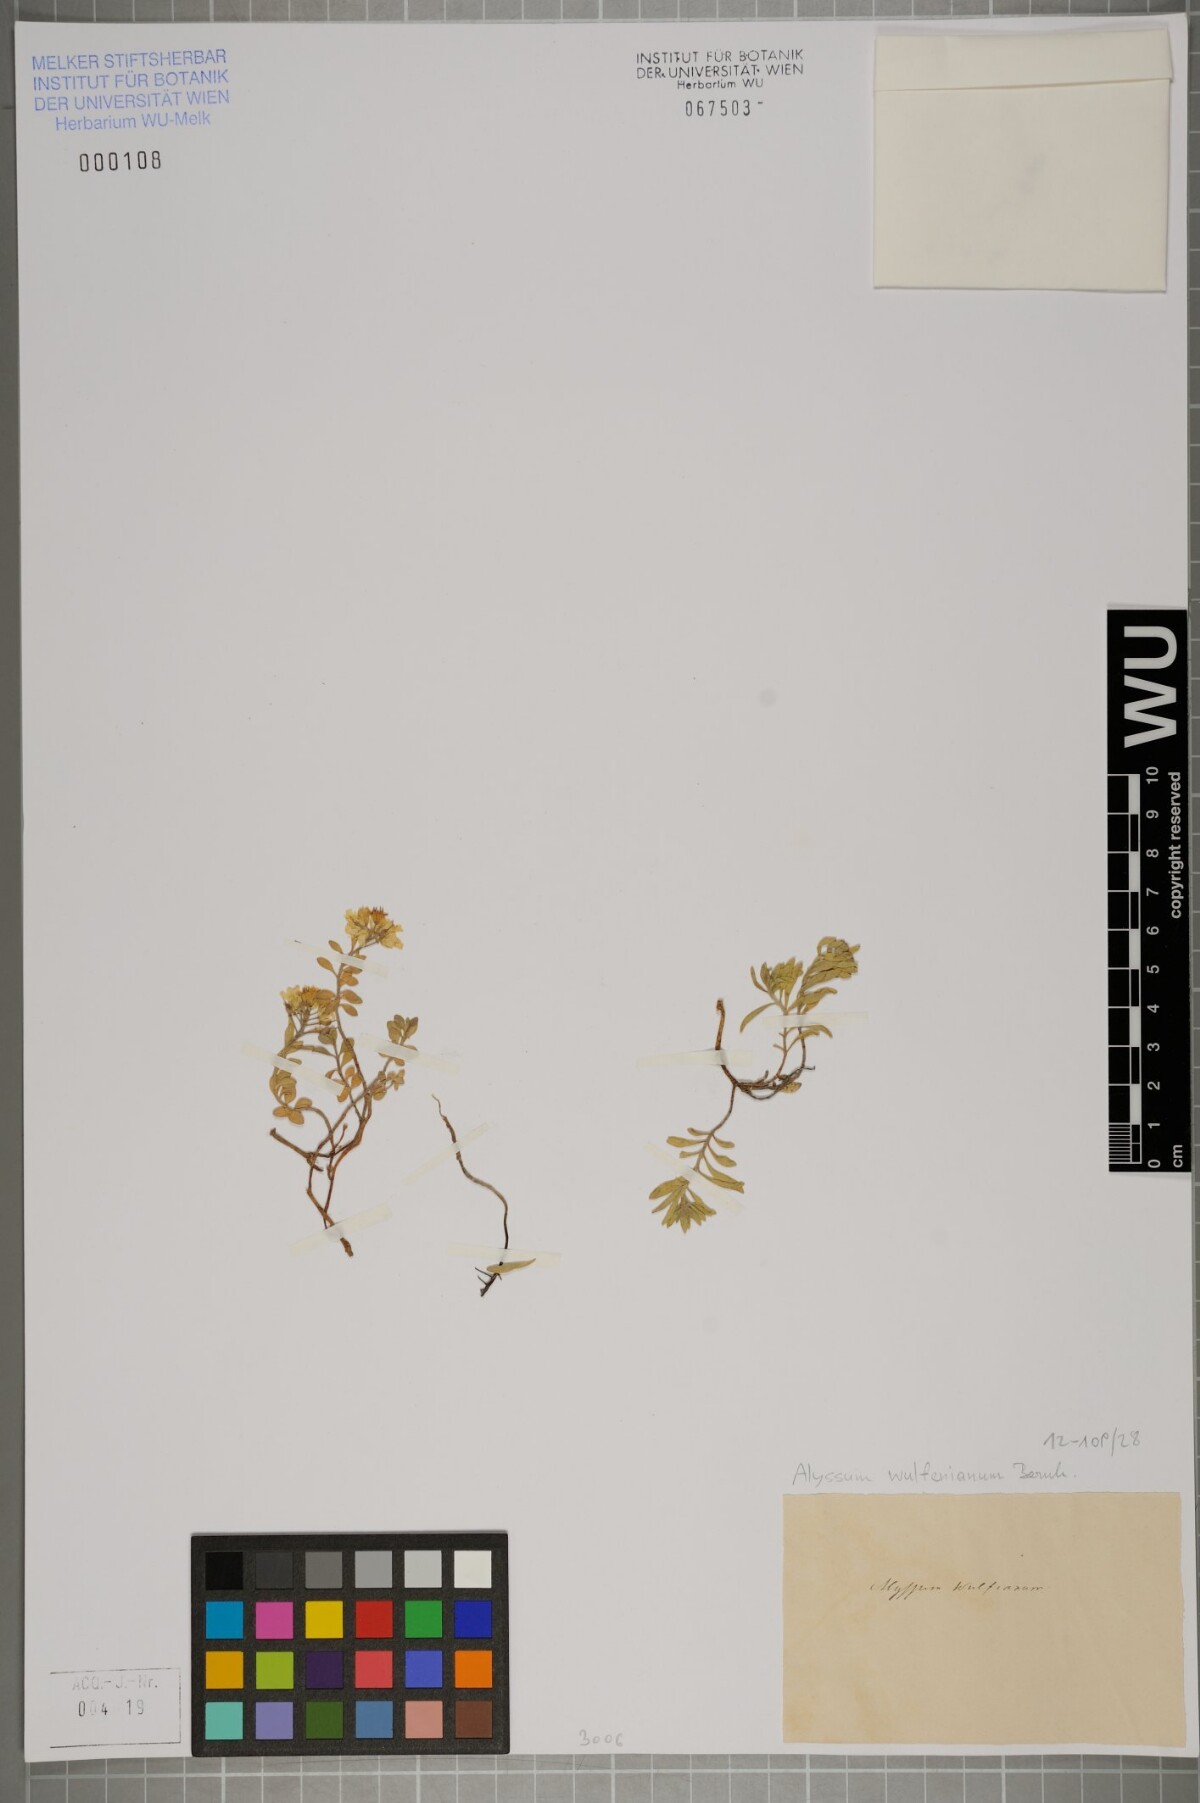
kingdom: Plantae
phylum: Tracheophyta
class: Magnoliopsida
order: Brassicales
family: Brassicaceae
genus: Alyssum
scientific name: Alyssum wulfenianum
